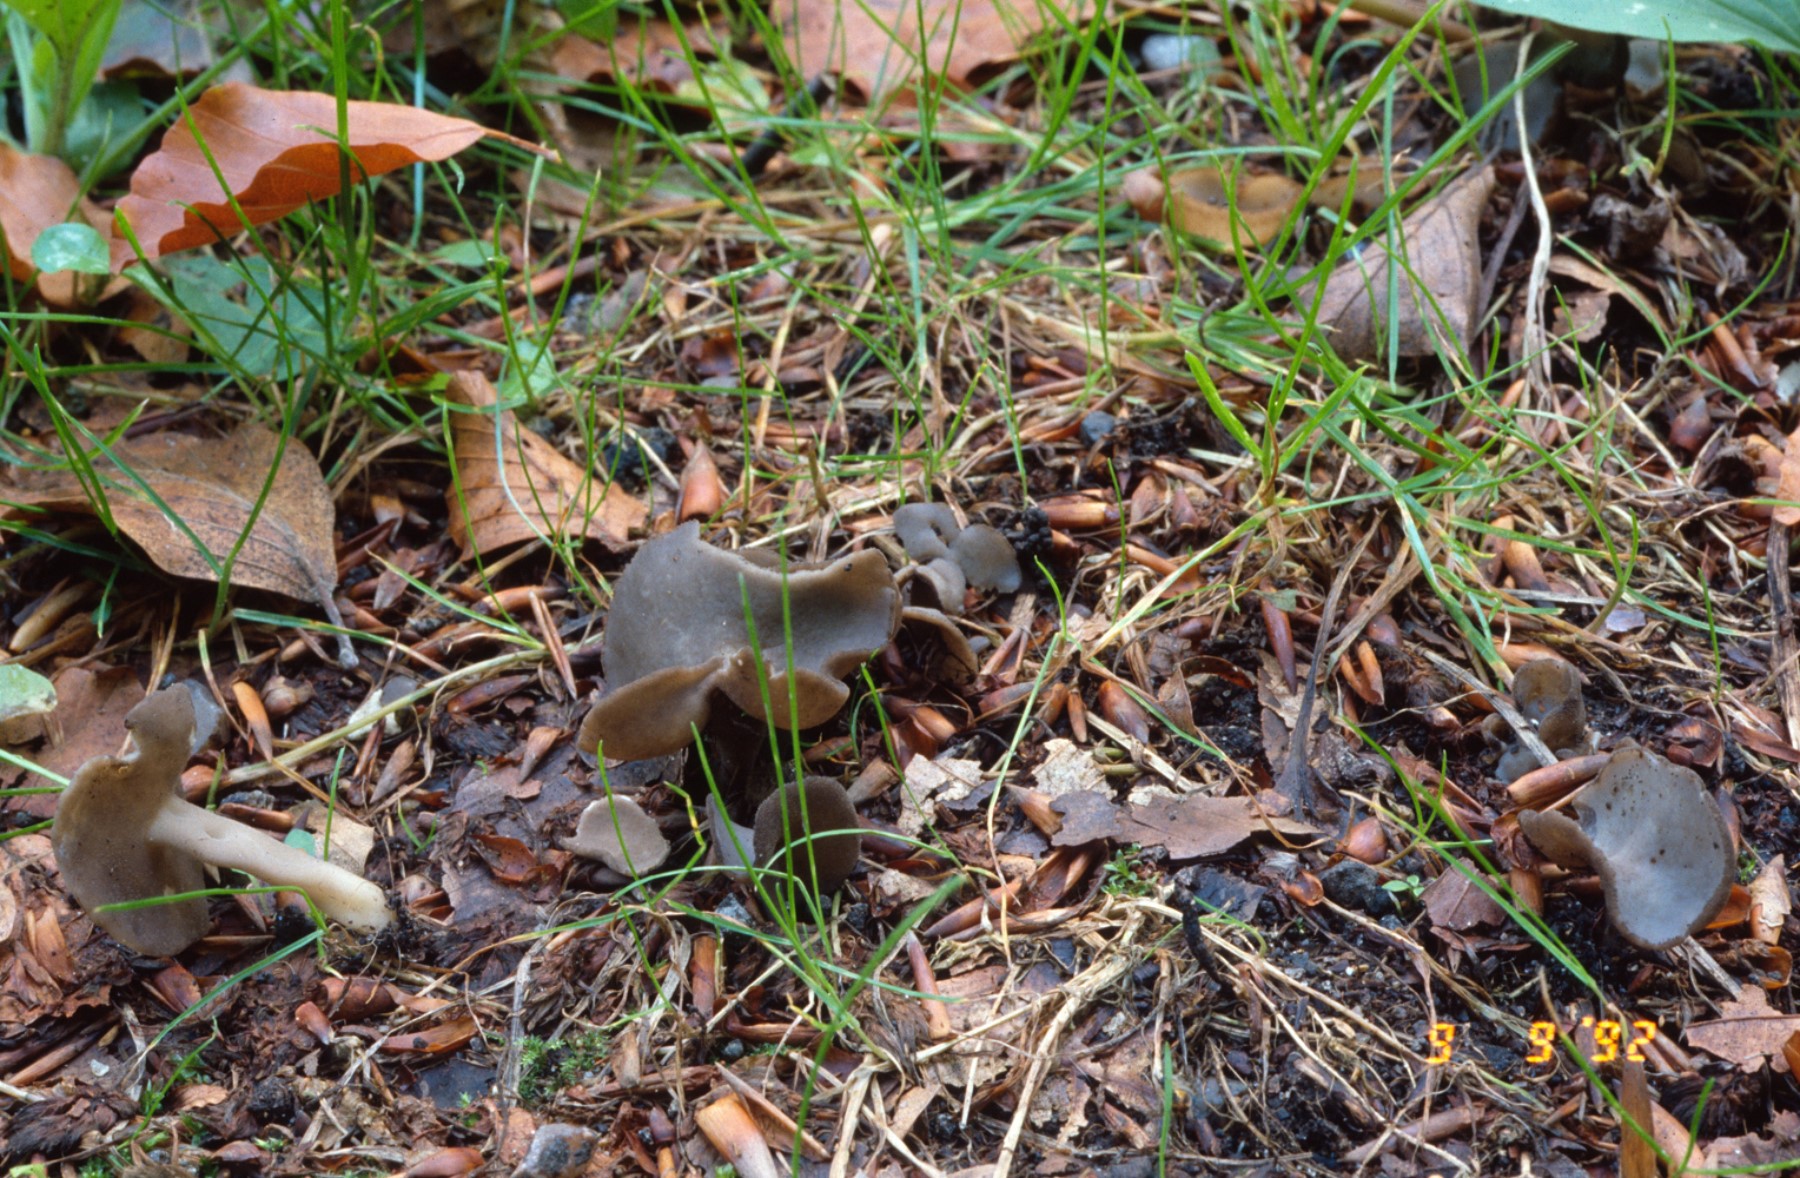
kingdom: Fungi
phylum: Ascomycota
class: Pezizomycetes
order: Pezizales
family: Helvellaceae
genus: Helvella
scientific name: Helvella fibrosa
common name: dunstokket foldhat
